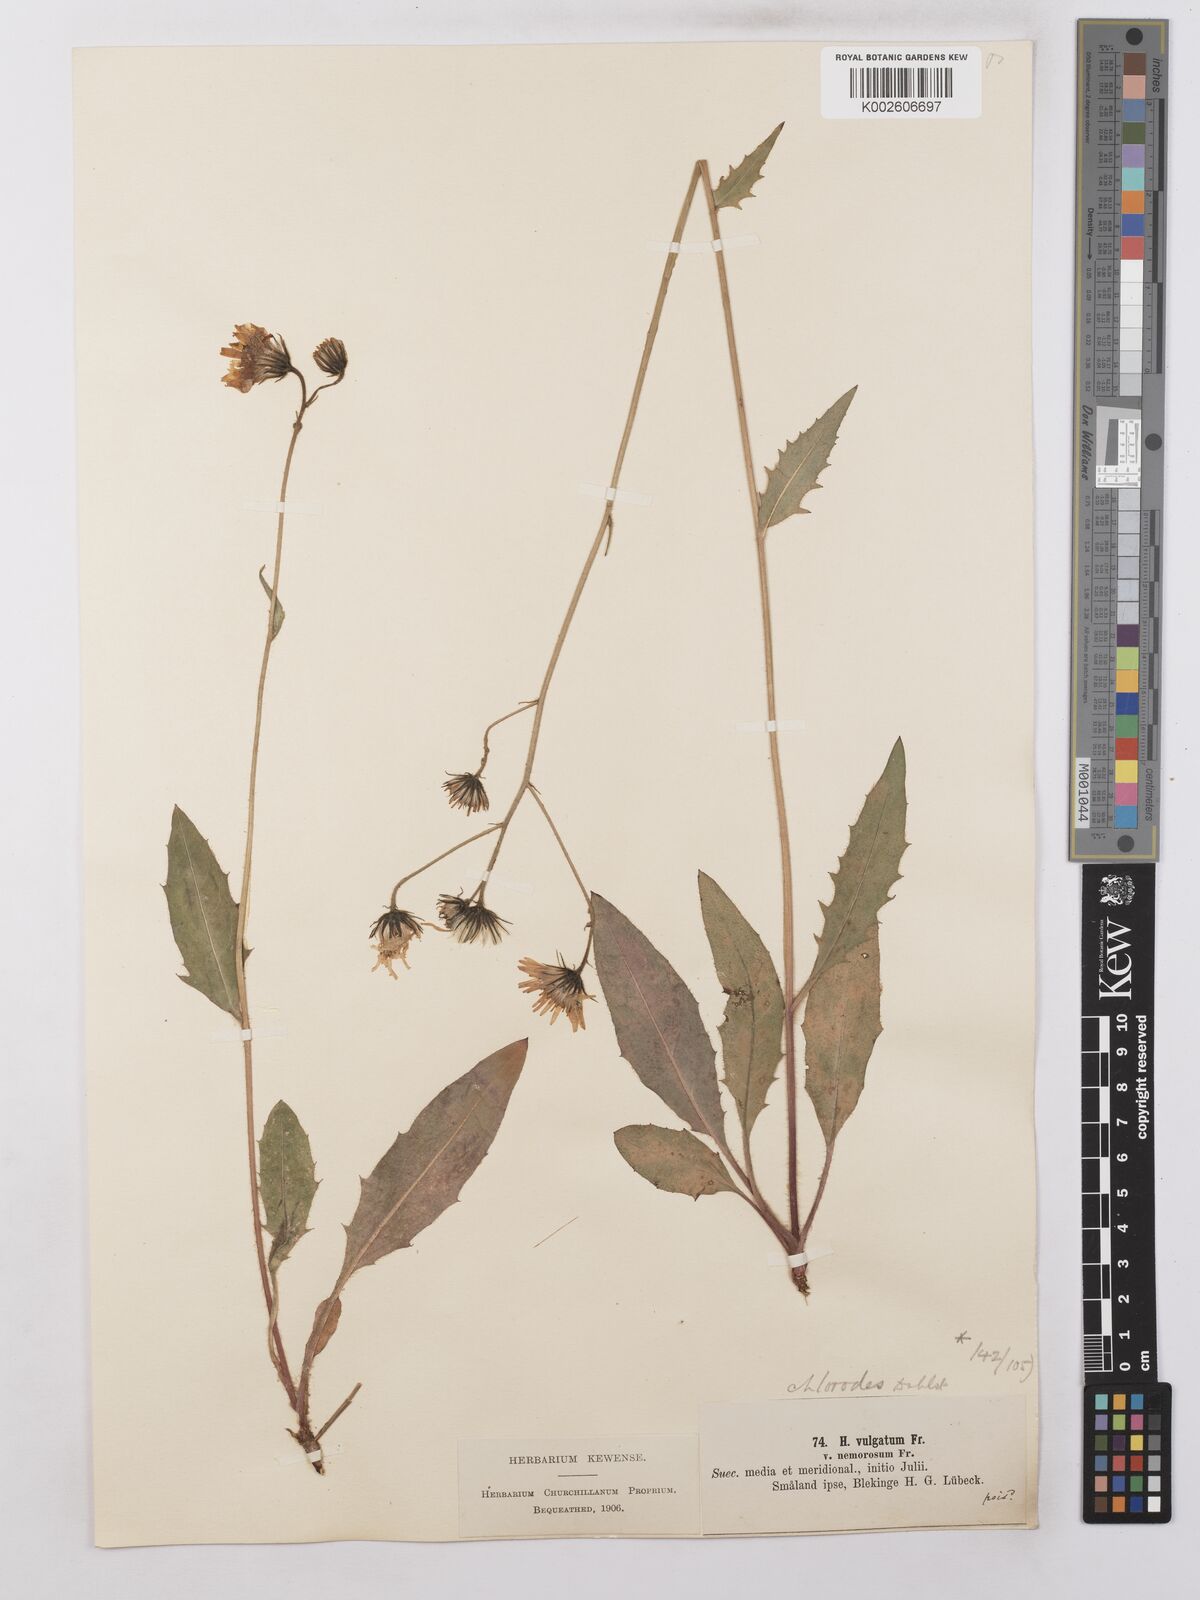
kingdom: Plantae
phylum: Tracheophyta
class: Magnoliopsida
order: Asterales
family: Asteraceae
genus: Hieracium
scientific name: Hieracium lachenalii
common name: Common hawkweed
